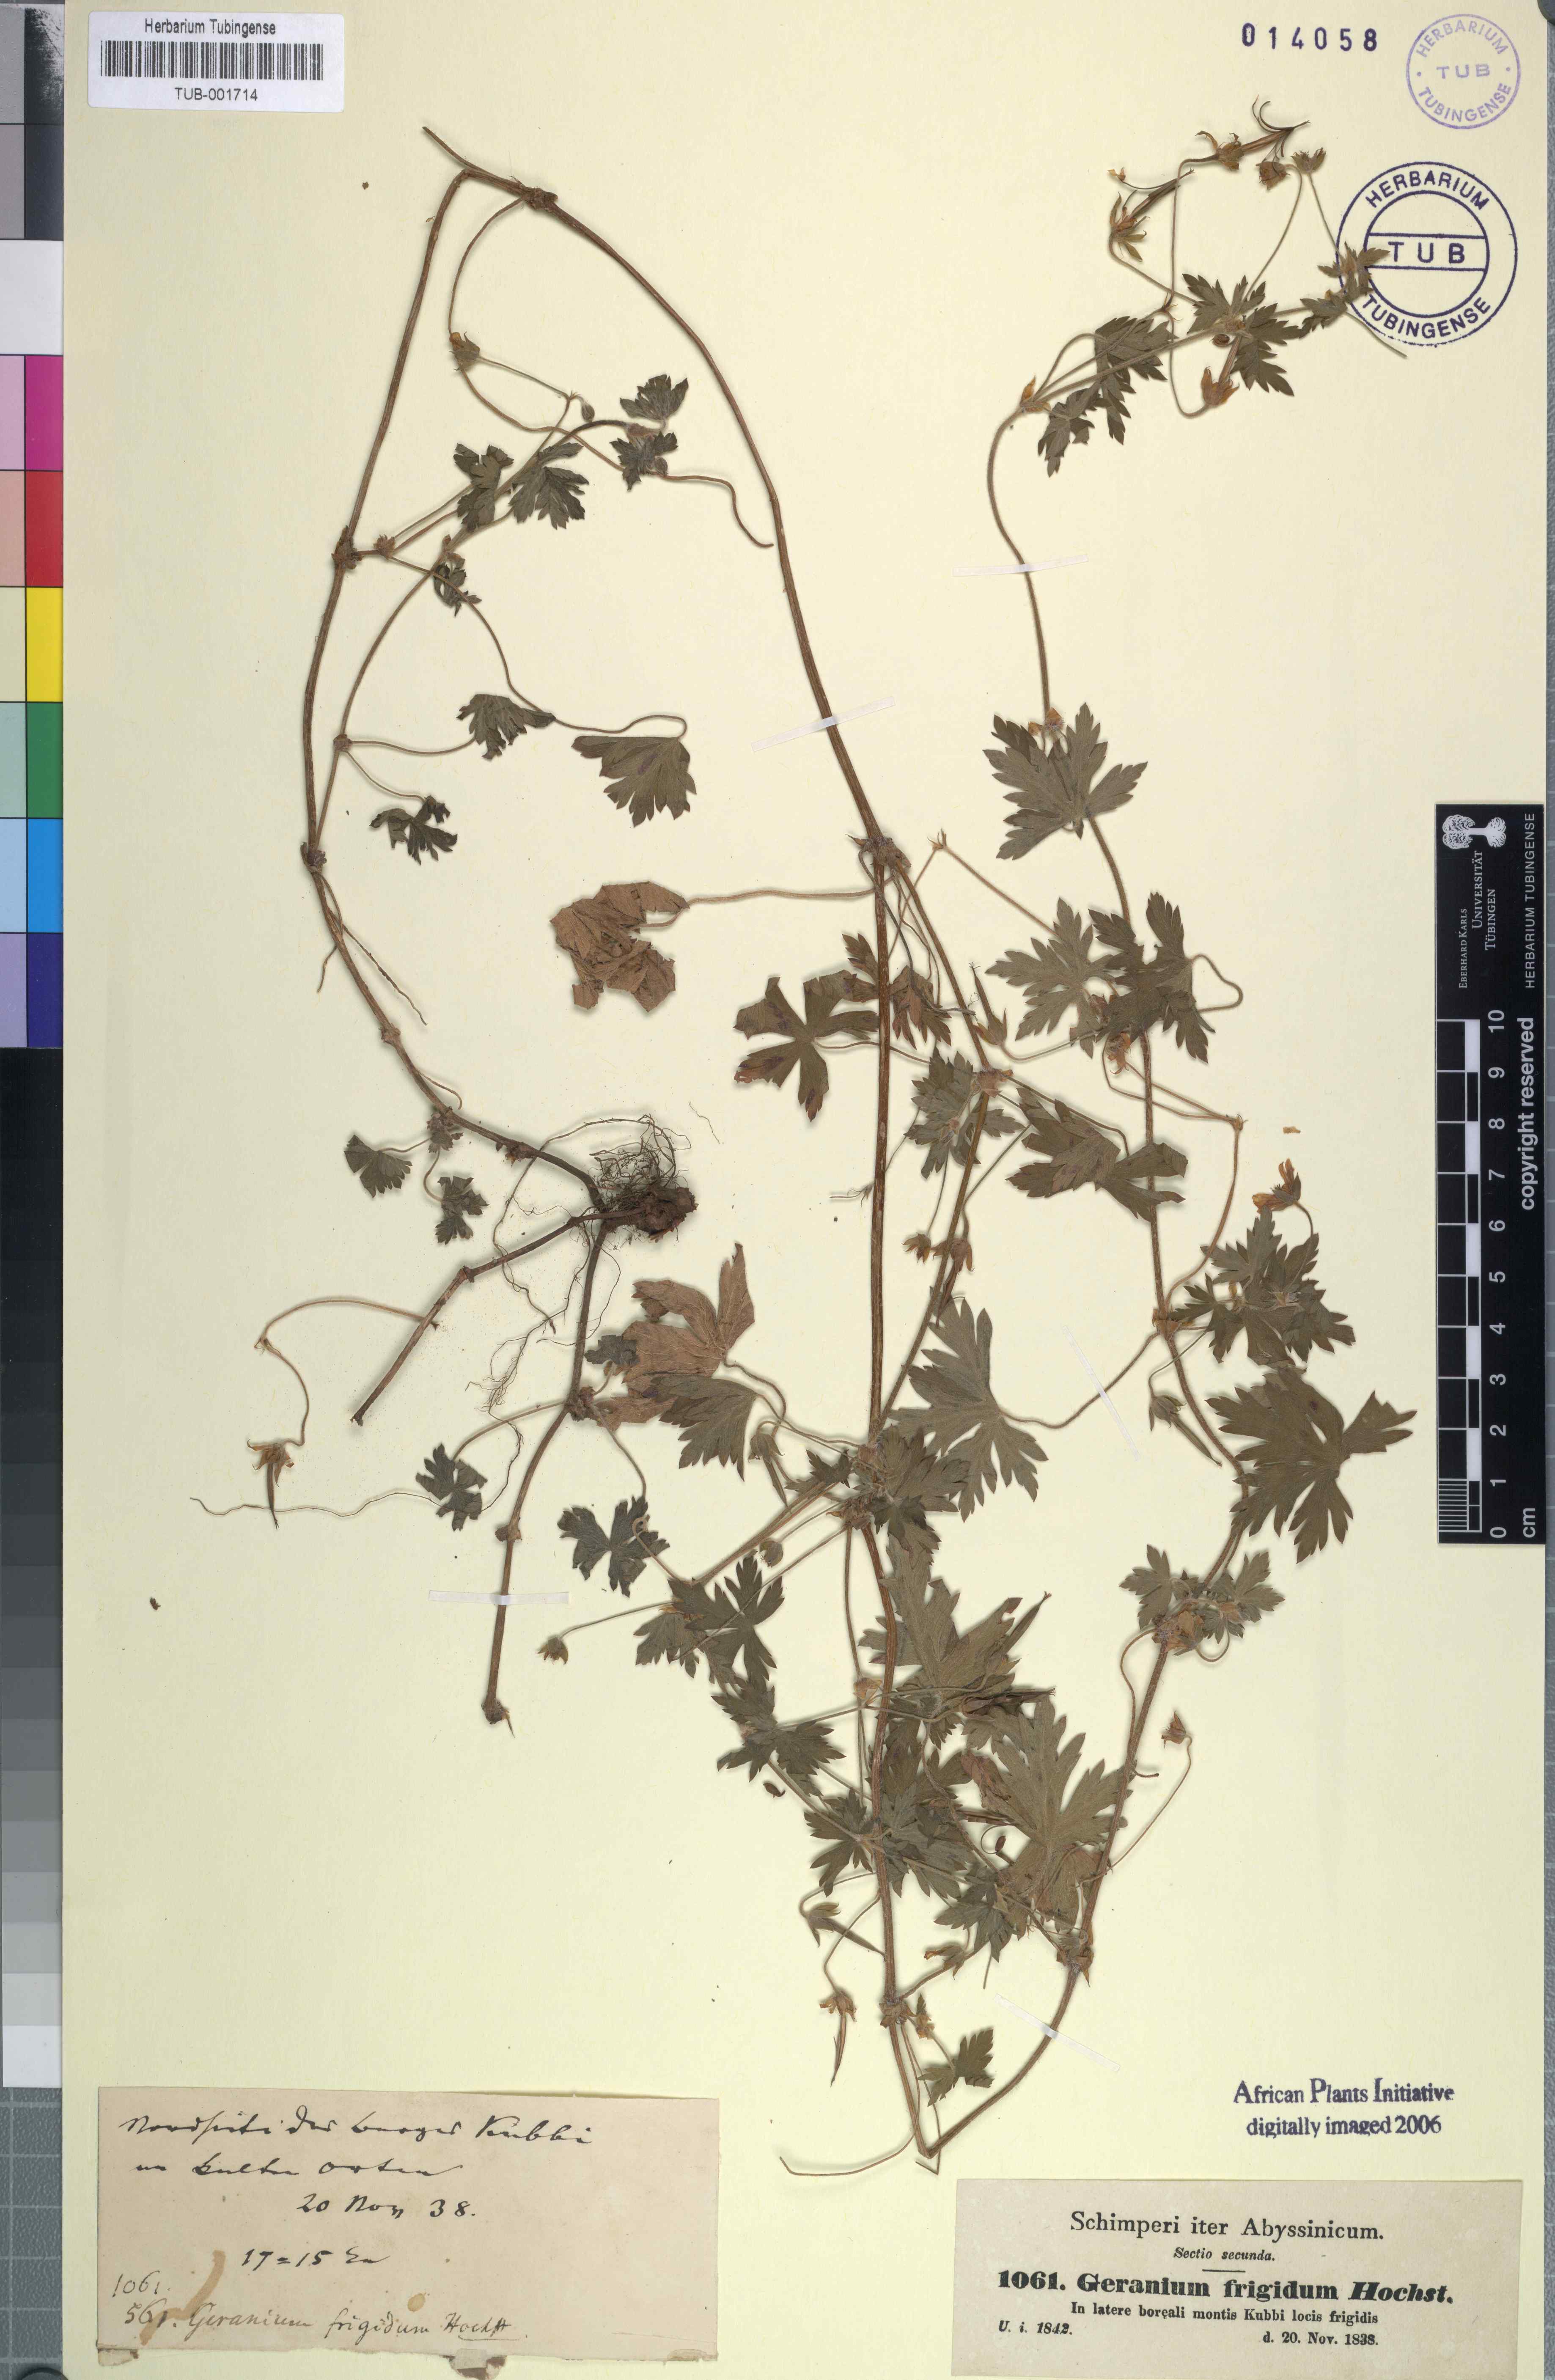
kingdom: Plantae
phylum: Tracheophyta
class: Magnoliopsida
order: Geraniales
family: Geraniaceae
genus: Geranium
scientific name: Geranium frigidum
